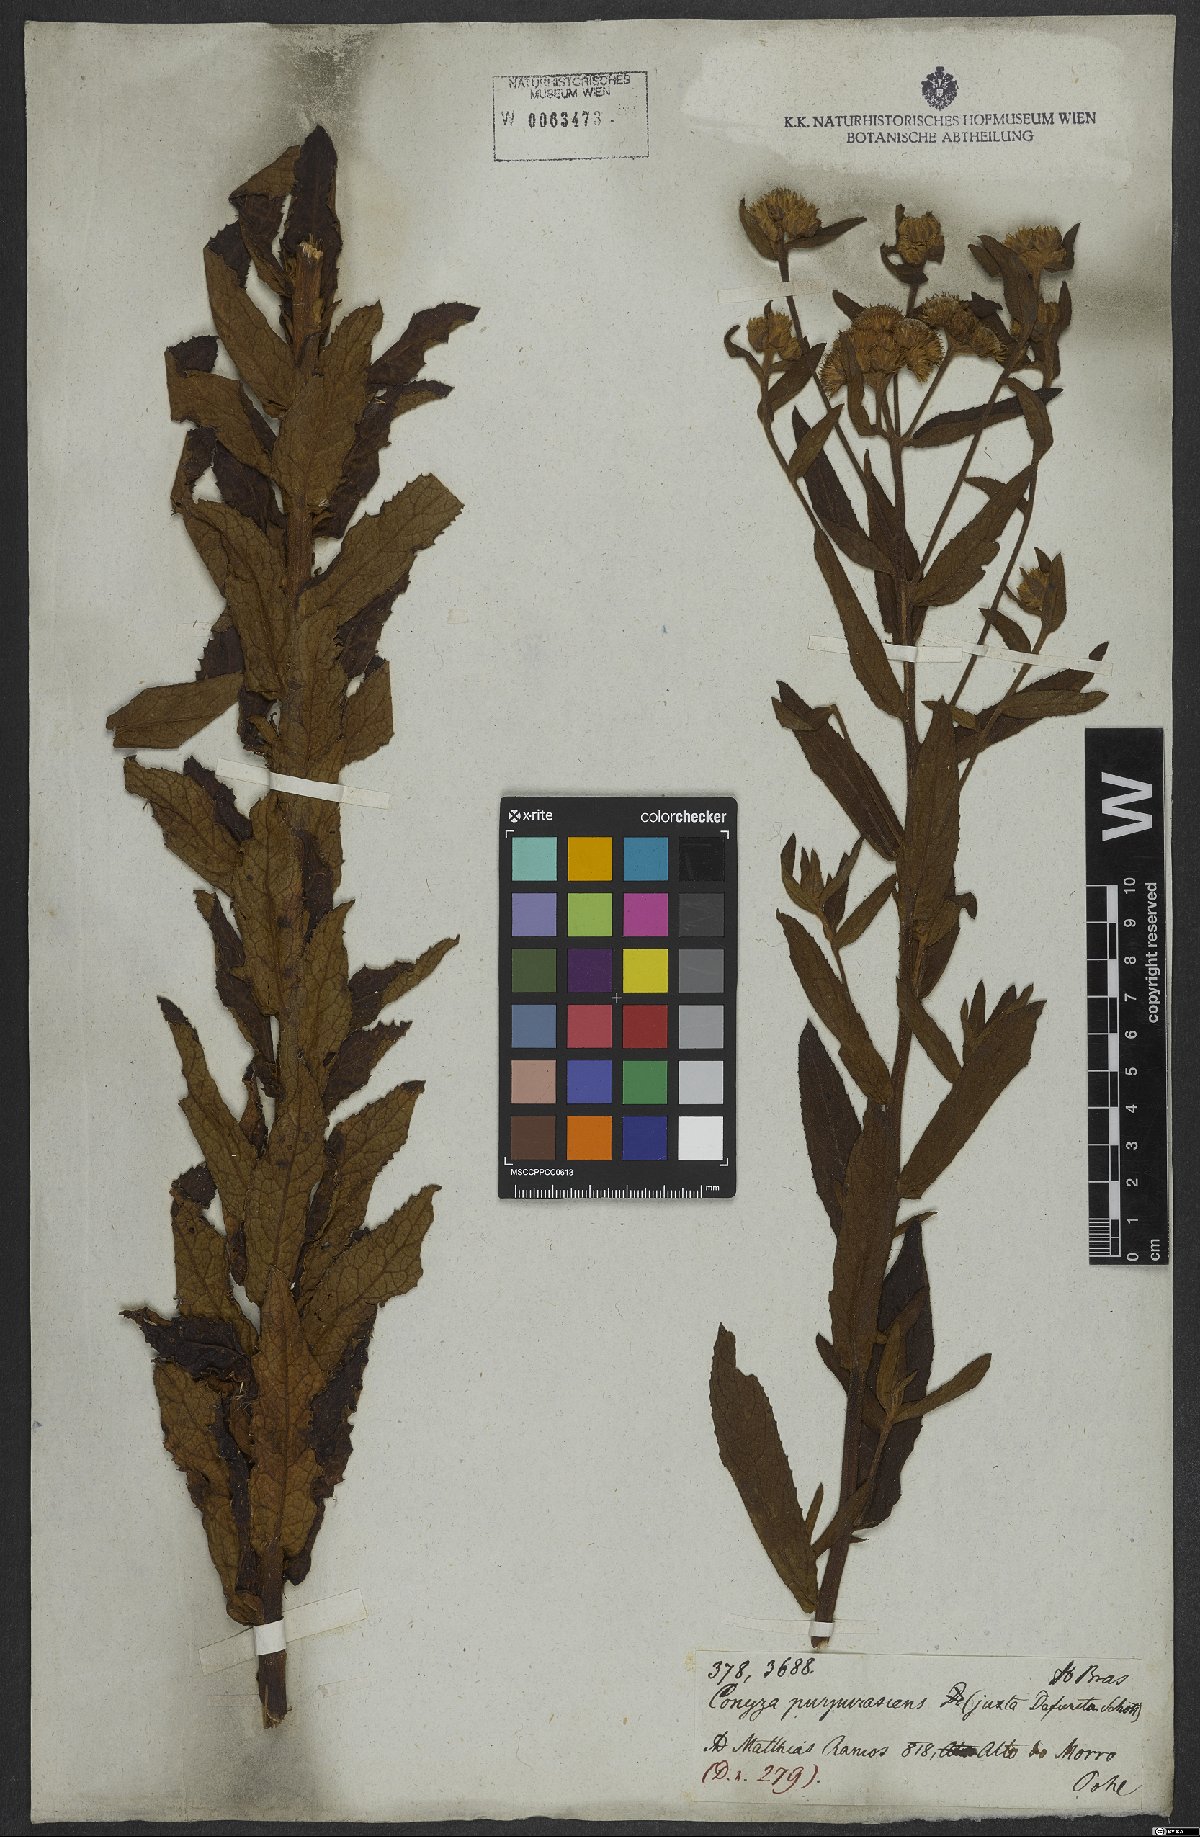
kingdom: Plantae
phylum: Tracheophyta
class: Magnoliopsida
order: Asterales
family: Asteraceae
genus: Pluchea
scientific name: Pluchea oblongifolia
